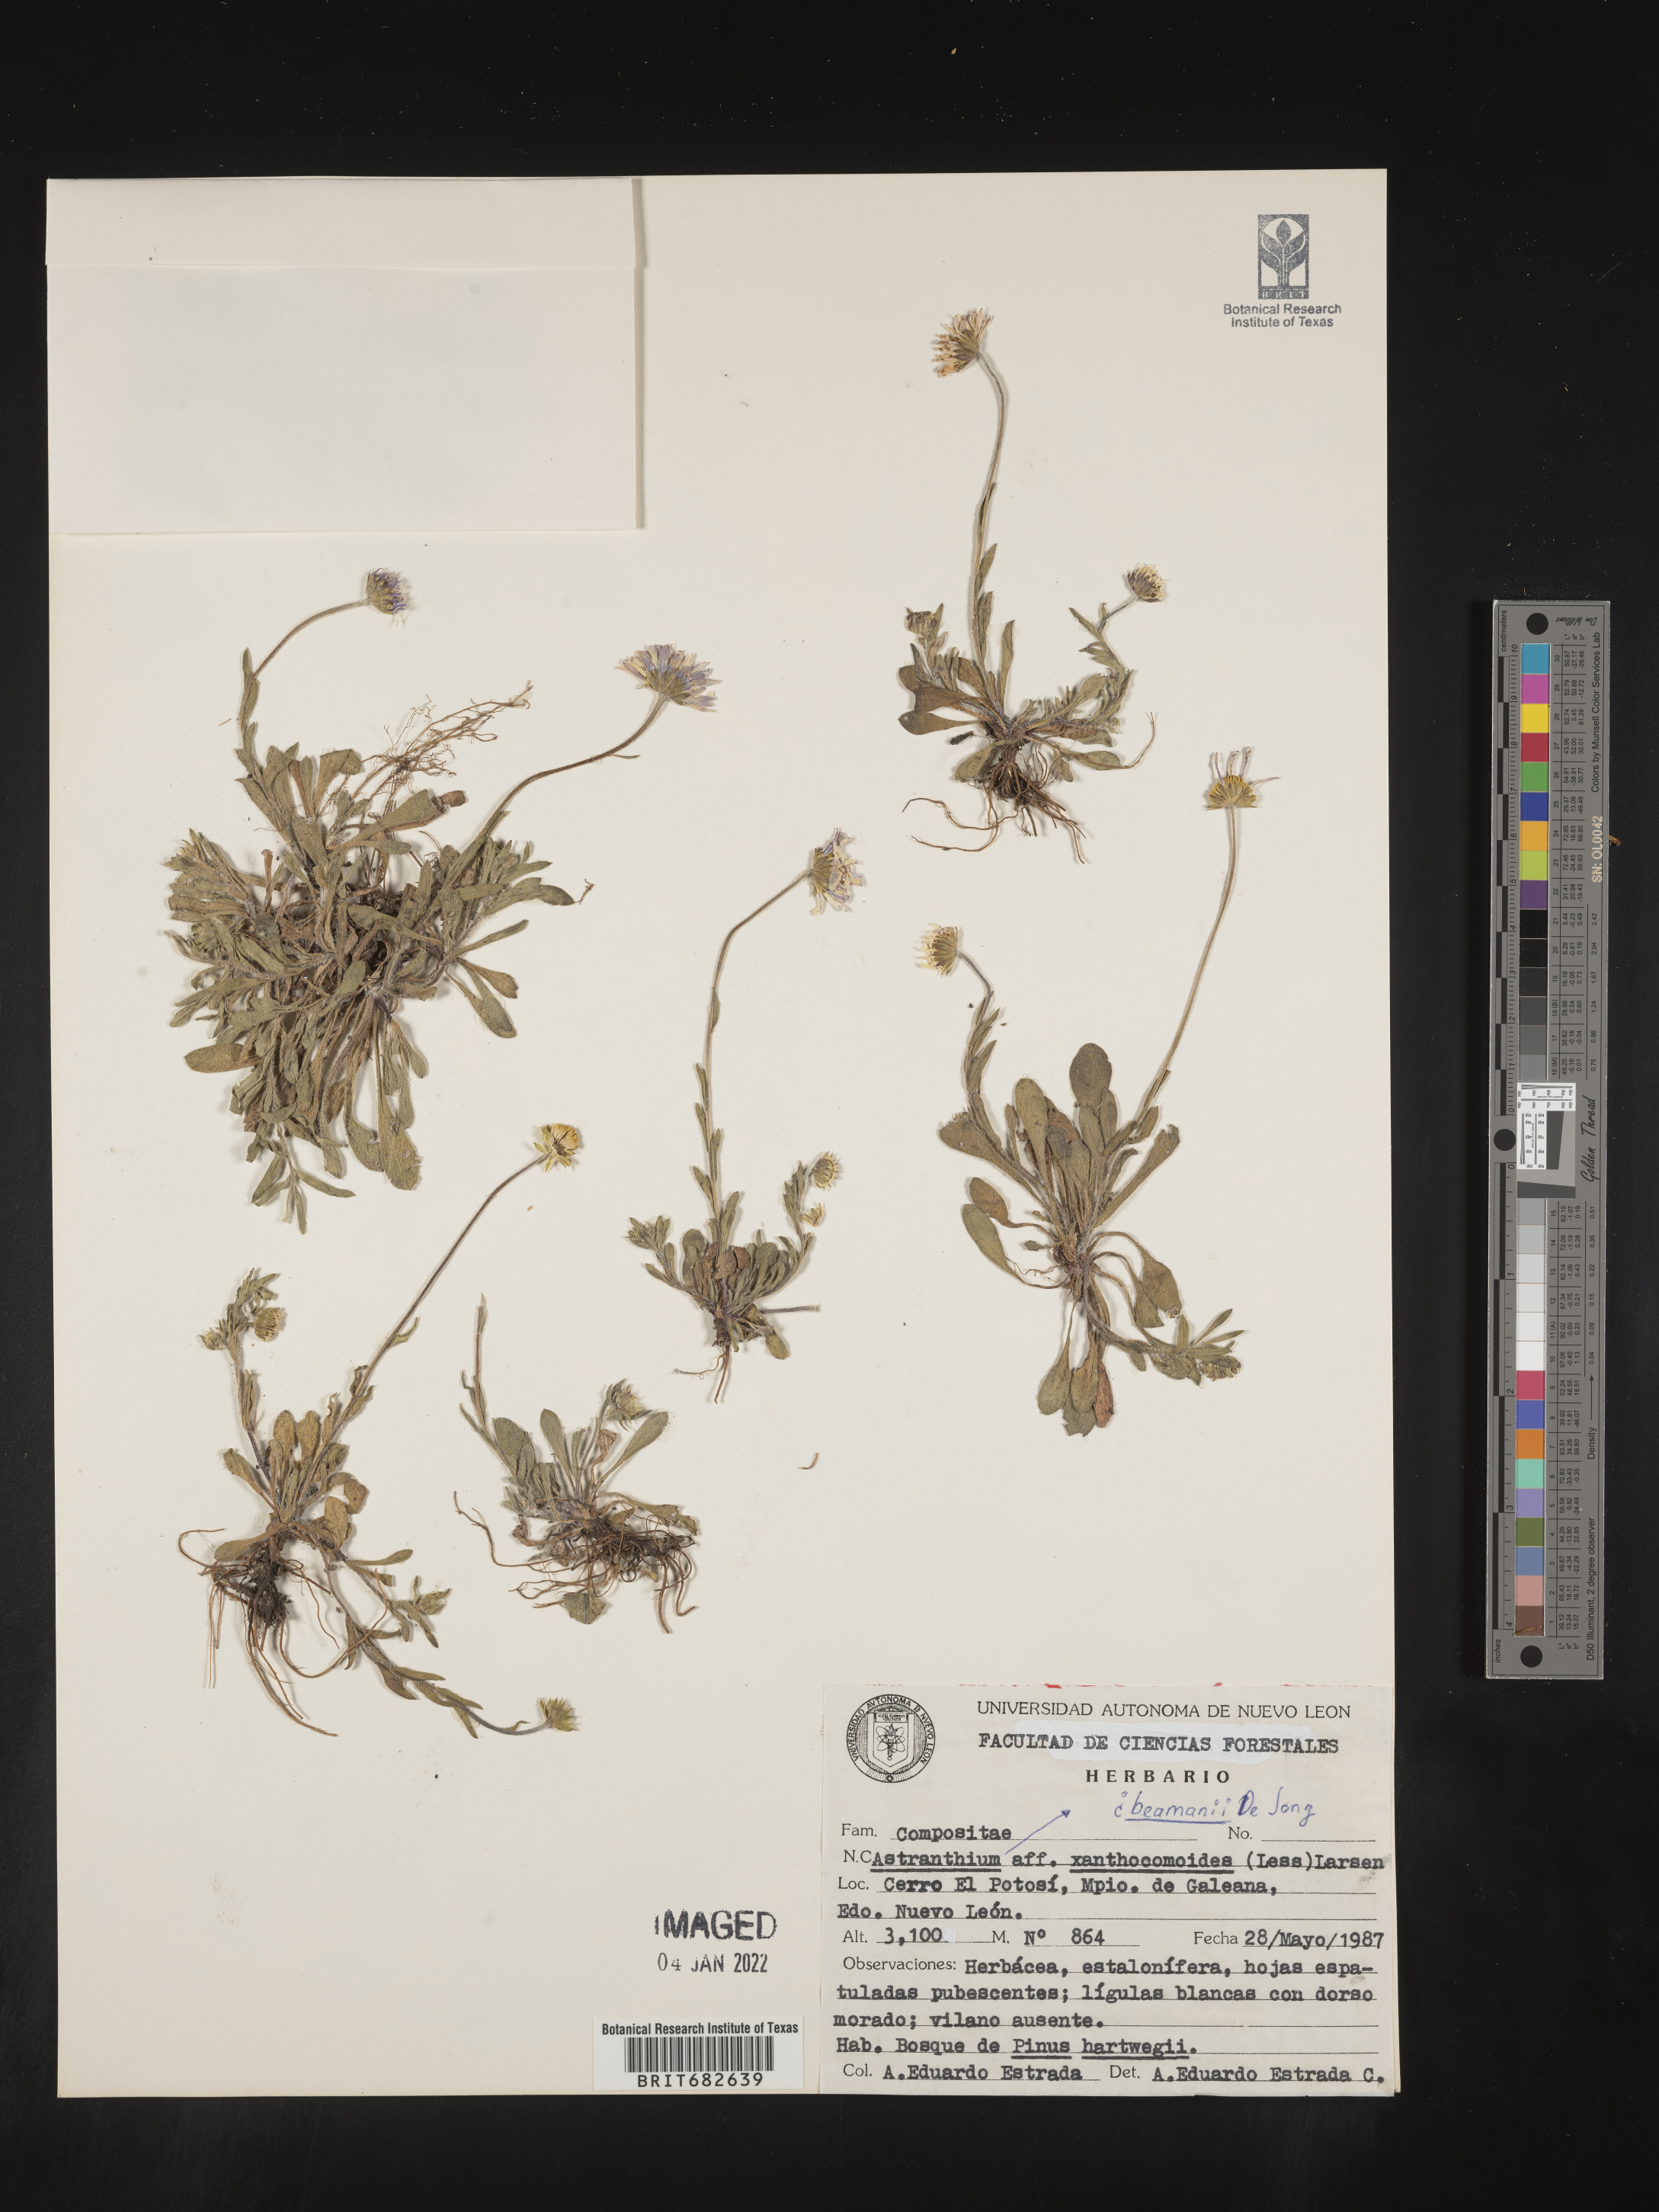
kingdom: Plantae
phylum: Tracheophyta
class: Magnoliopsida
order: Asterales
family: Asteraceae
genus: Astranthium
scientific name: Astranthium
